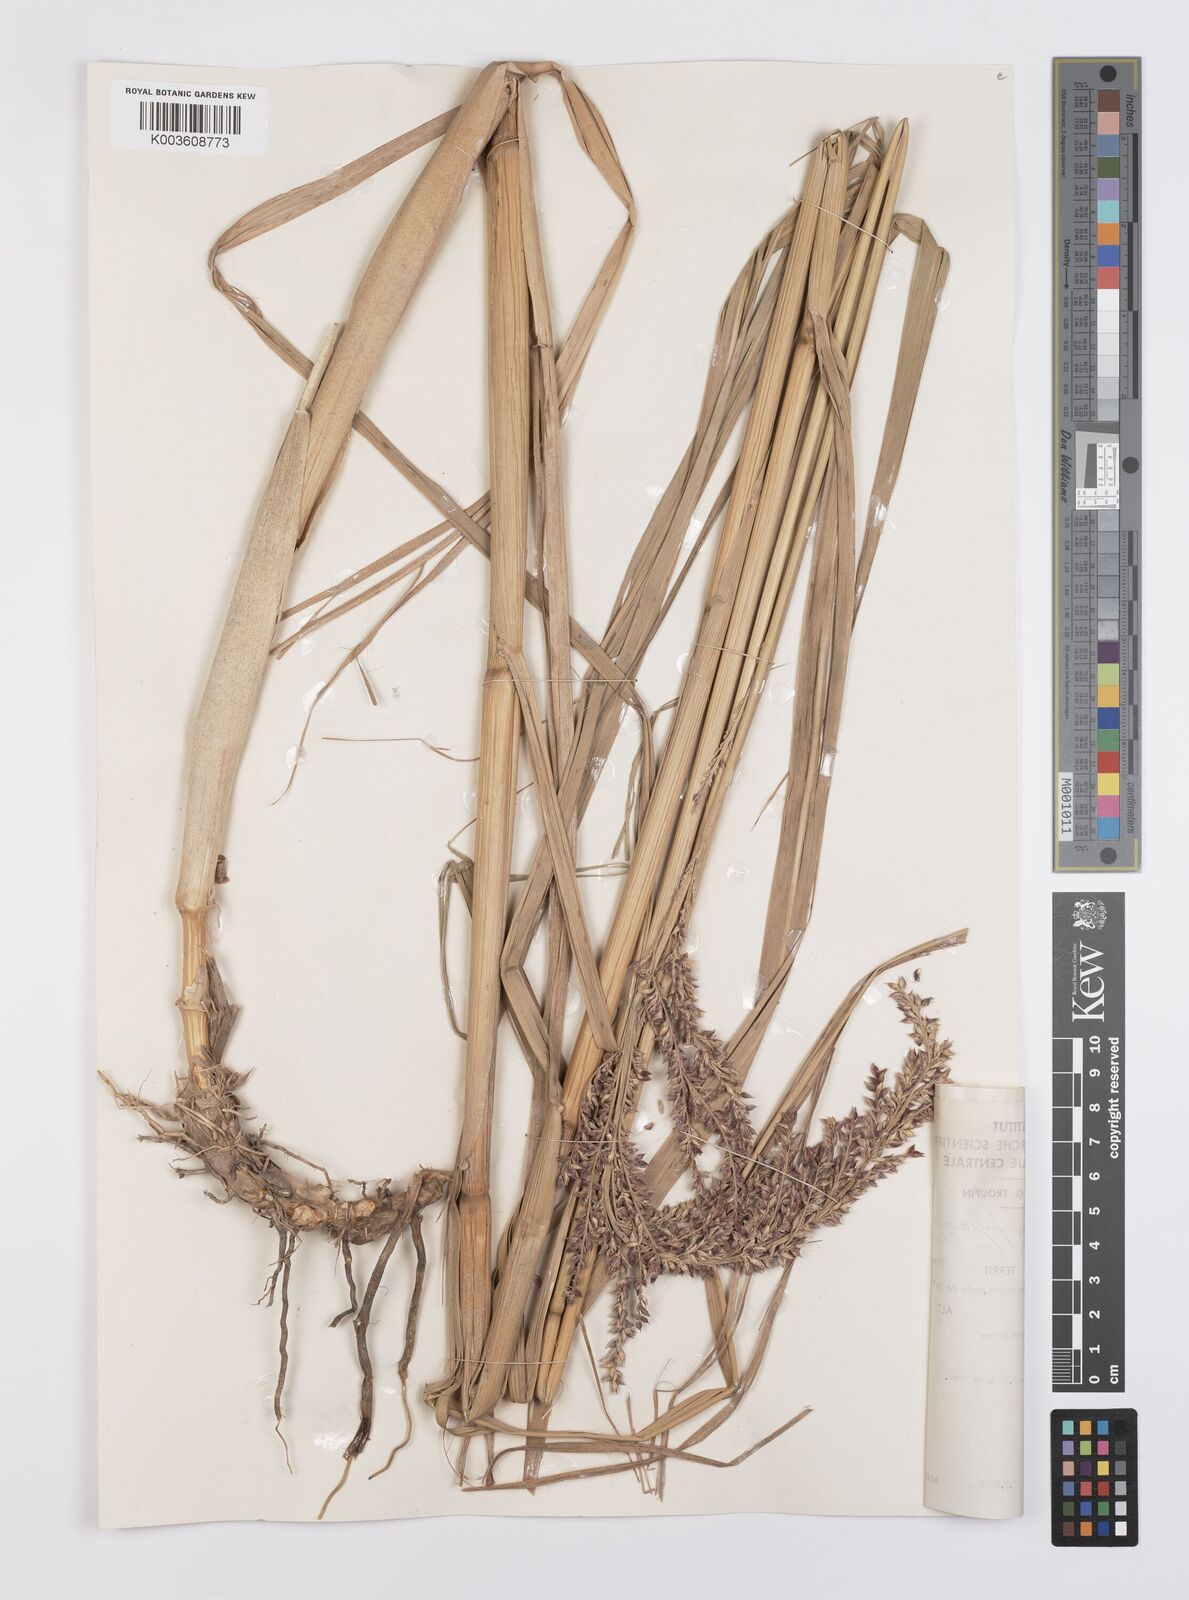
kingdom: Plantae
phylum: Tracheophyta
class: Liliopsida
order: Poales
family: Poaceae
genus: Echinochloa
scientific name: Echinochloa pyramidalis
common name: Antelope grass
